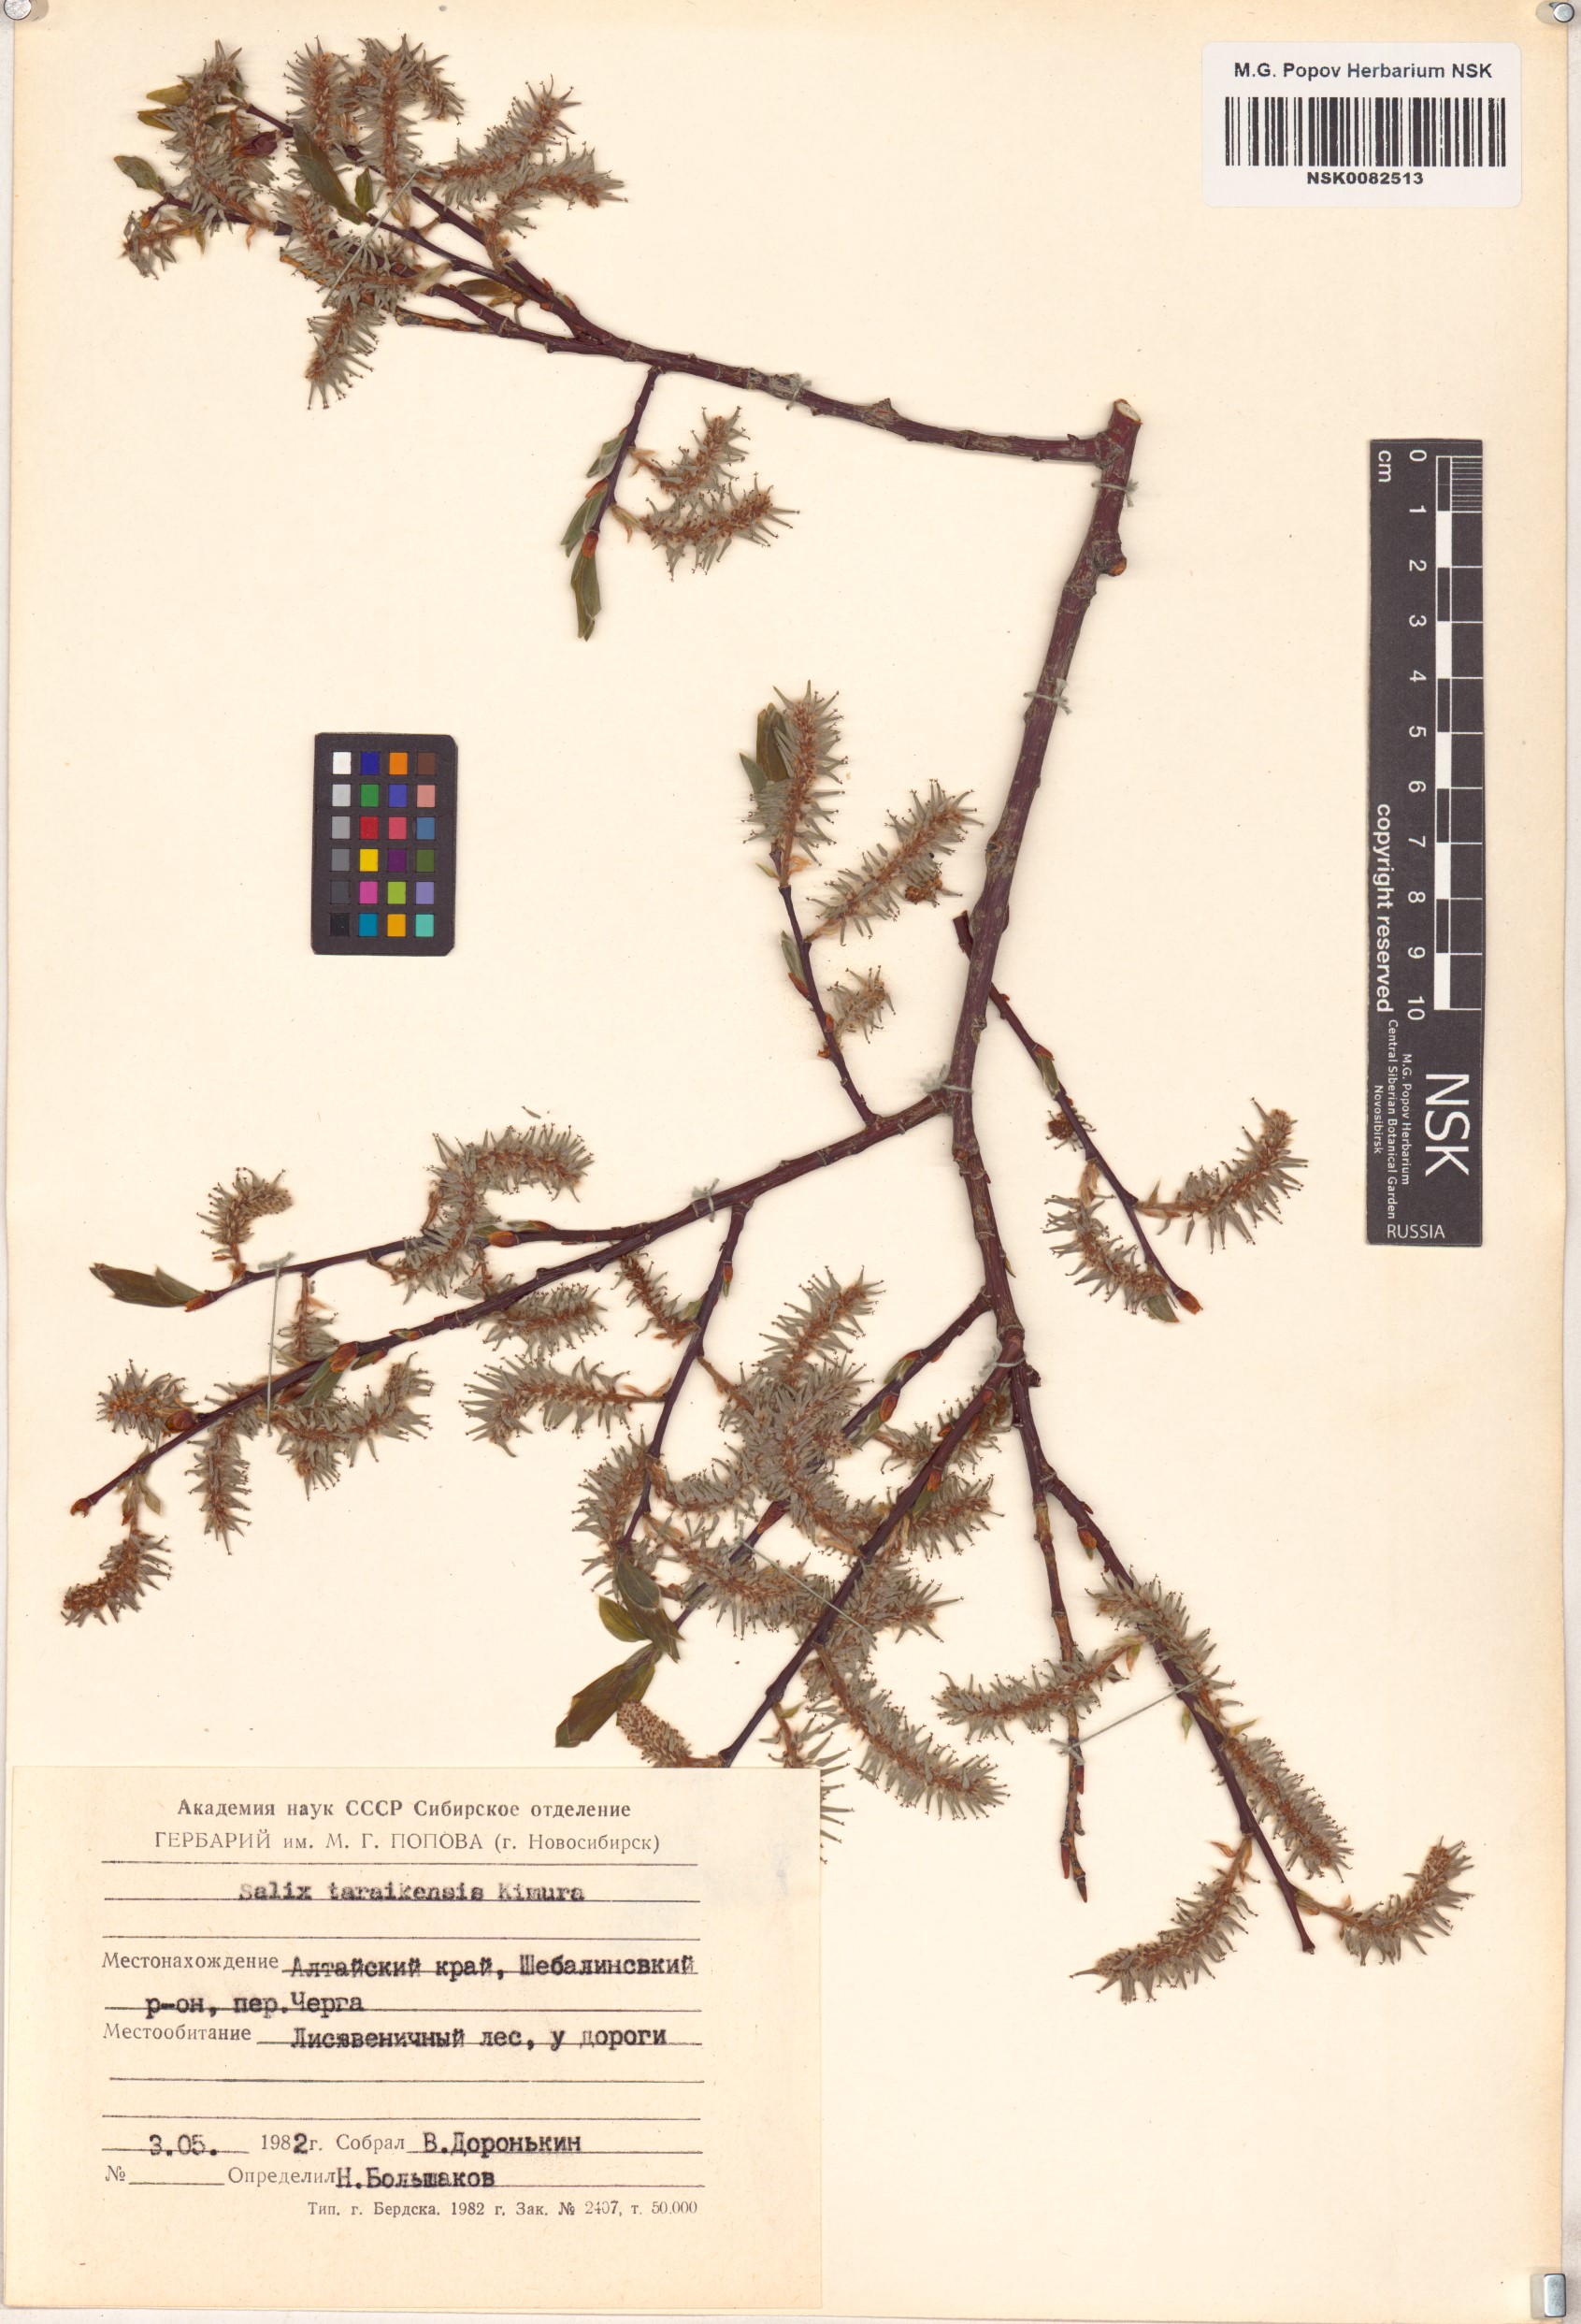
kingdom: Plantae
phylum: Tracheophyta
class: Magnoliopsida
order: Malpighiales
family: Salicaceae
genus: Salix
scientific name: Salix taraikensis
